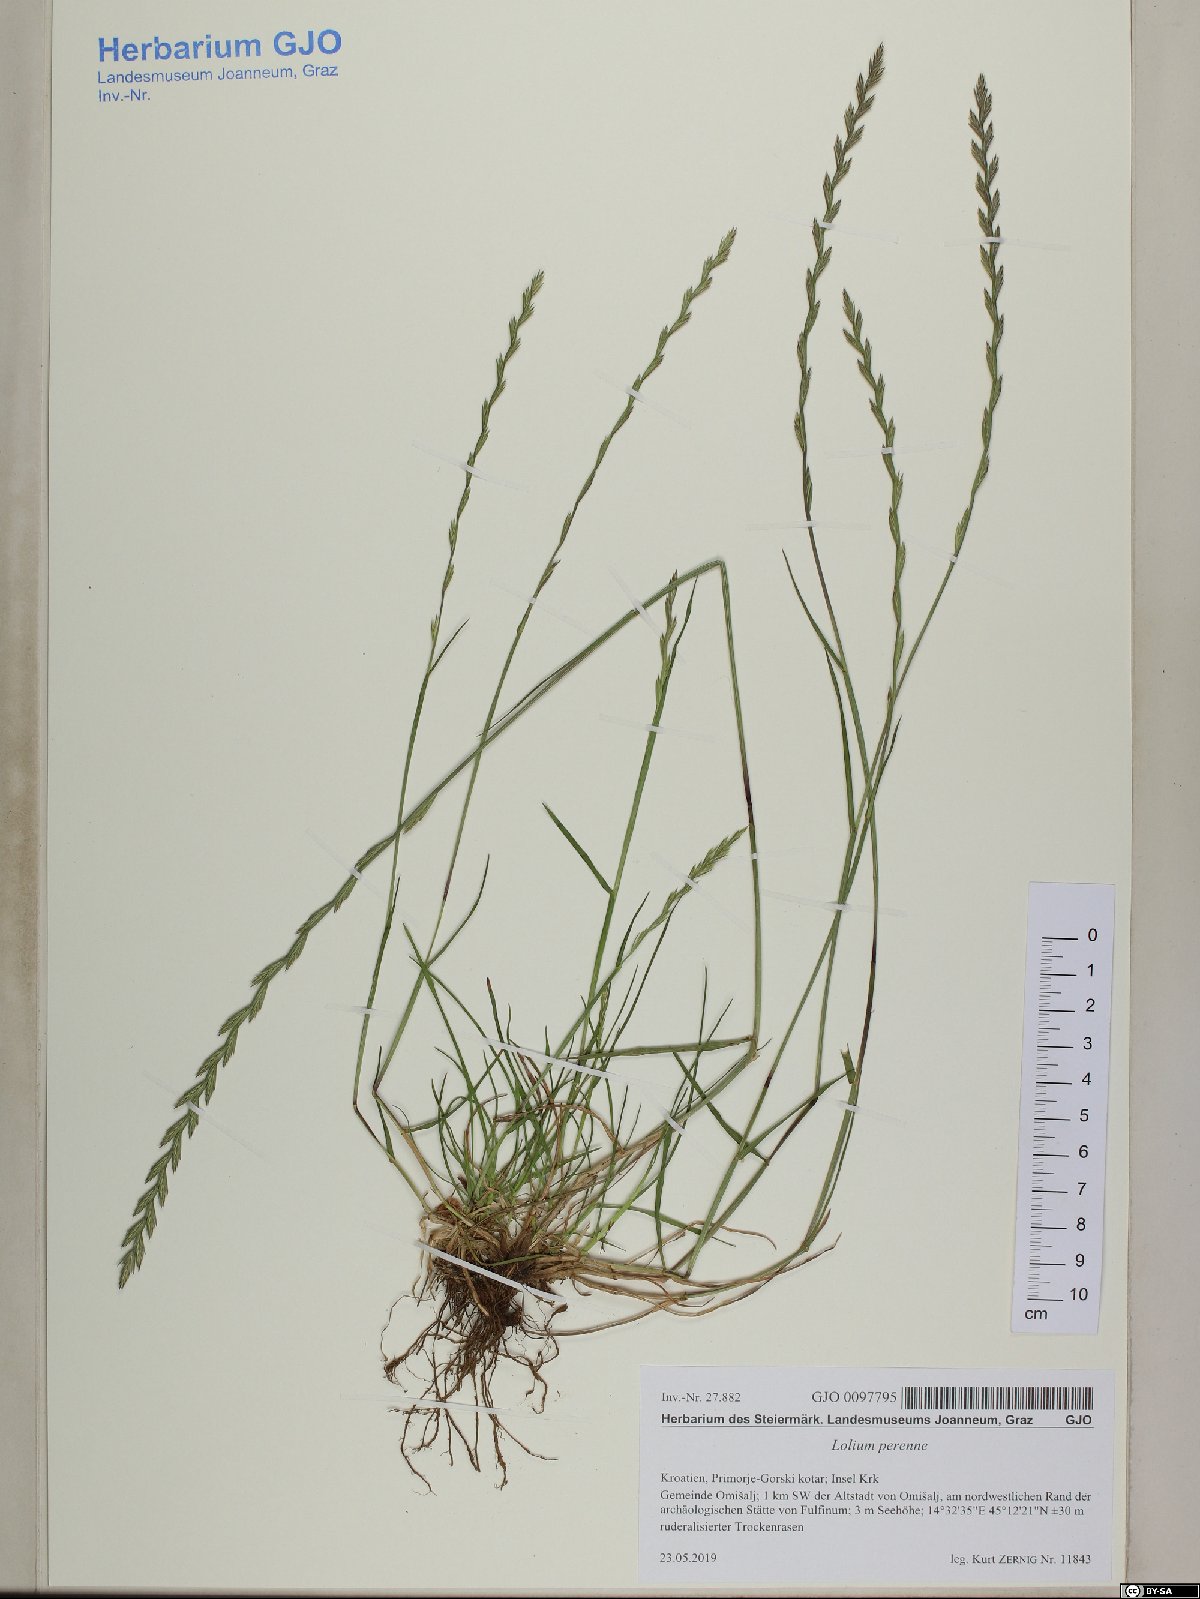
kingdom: Plantae
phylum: Tracheophyta
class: Liliopsida
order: Poales
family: Poaceae
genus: Lolium
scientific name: Lolium perenne
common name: Perennial ryegrass
